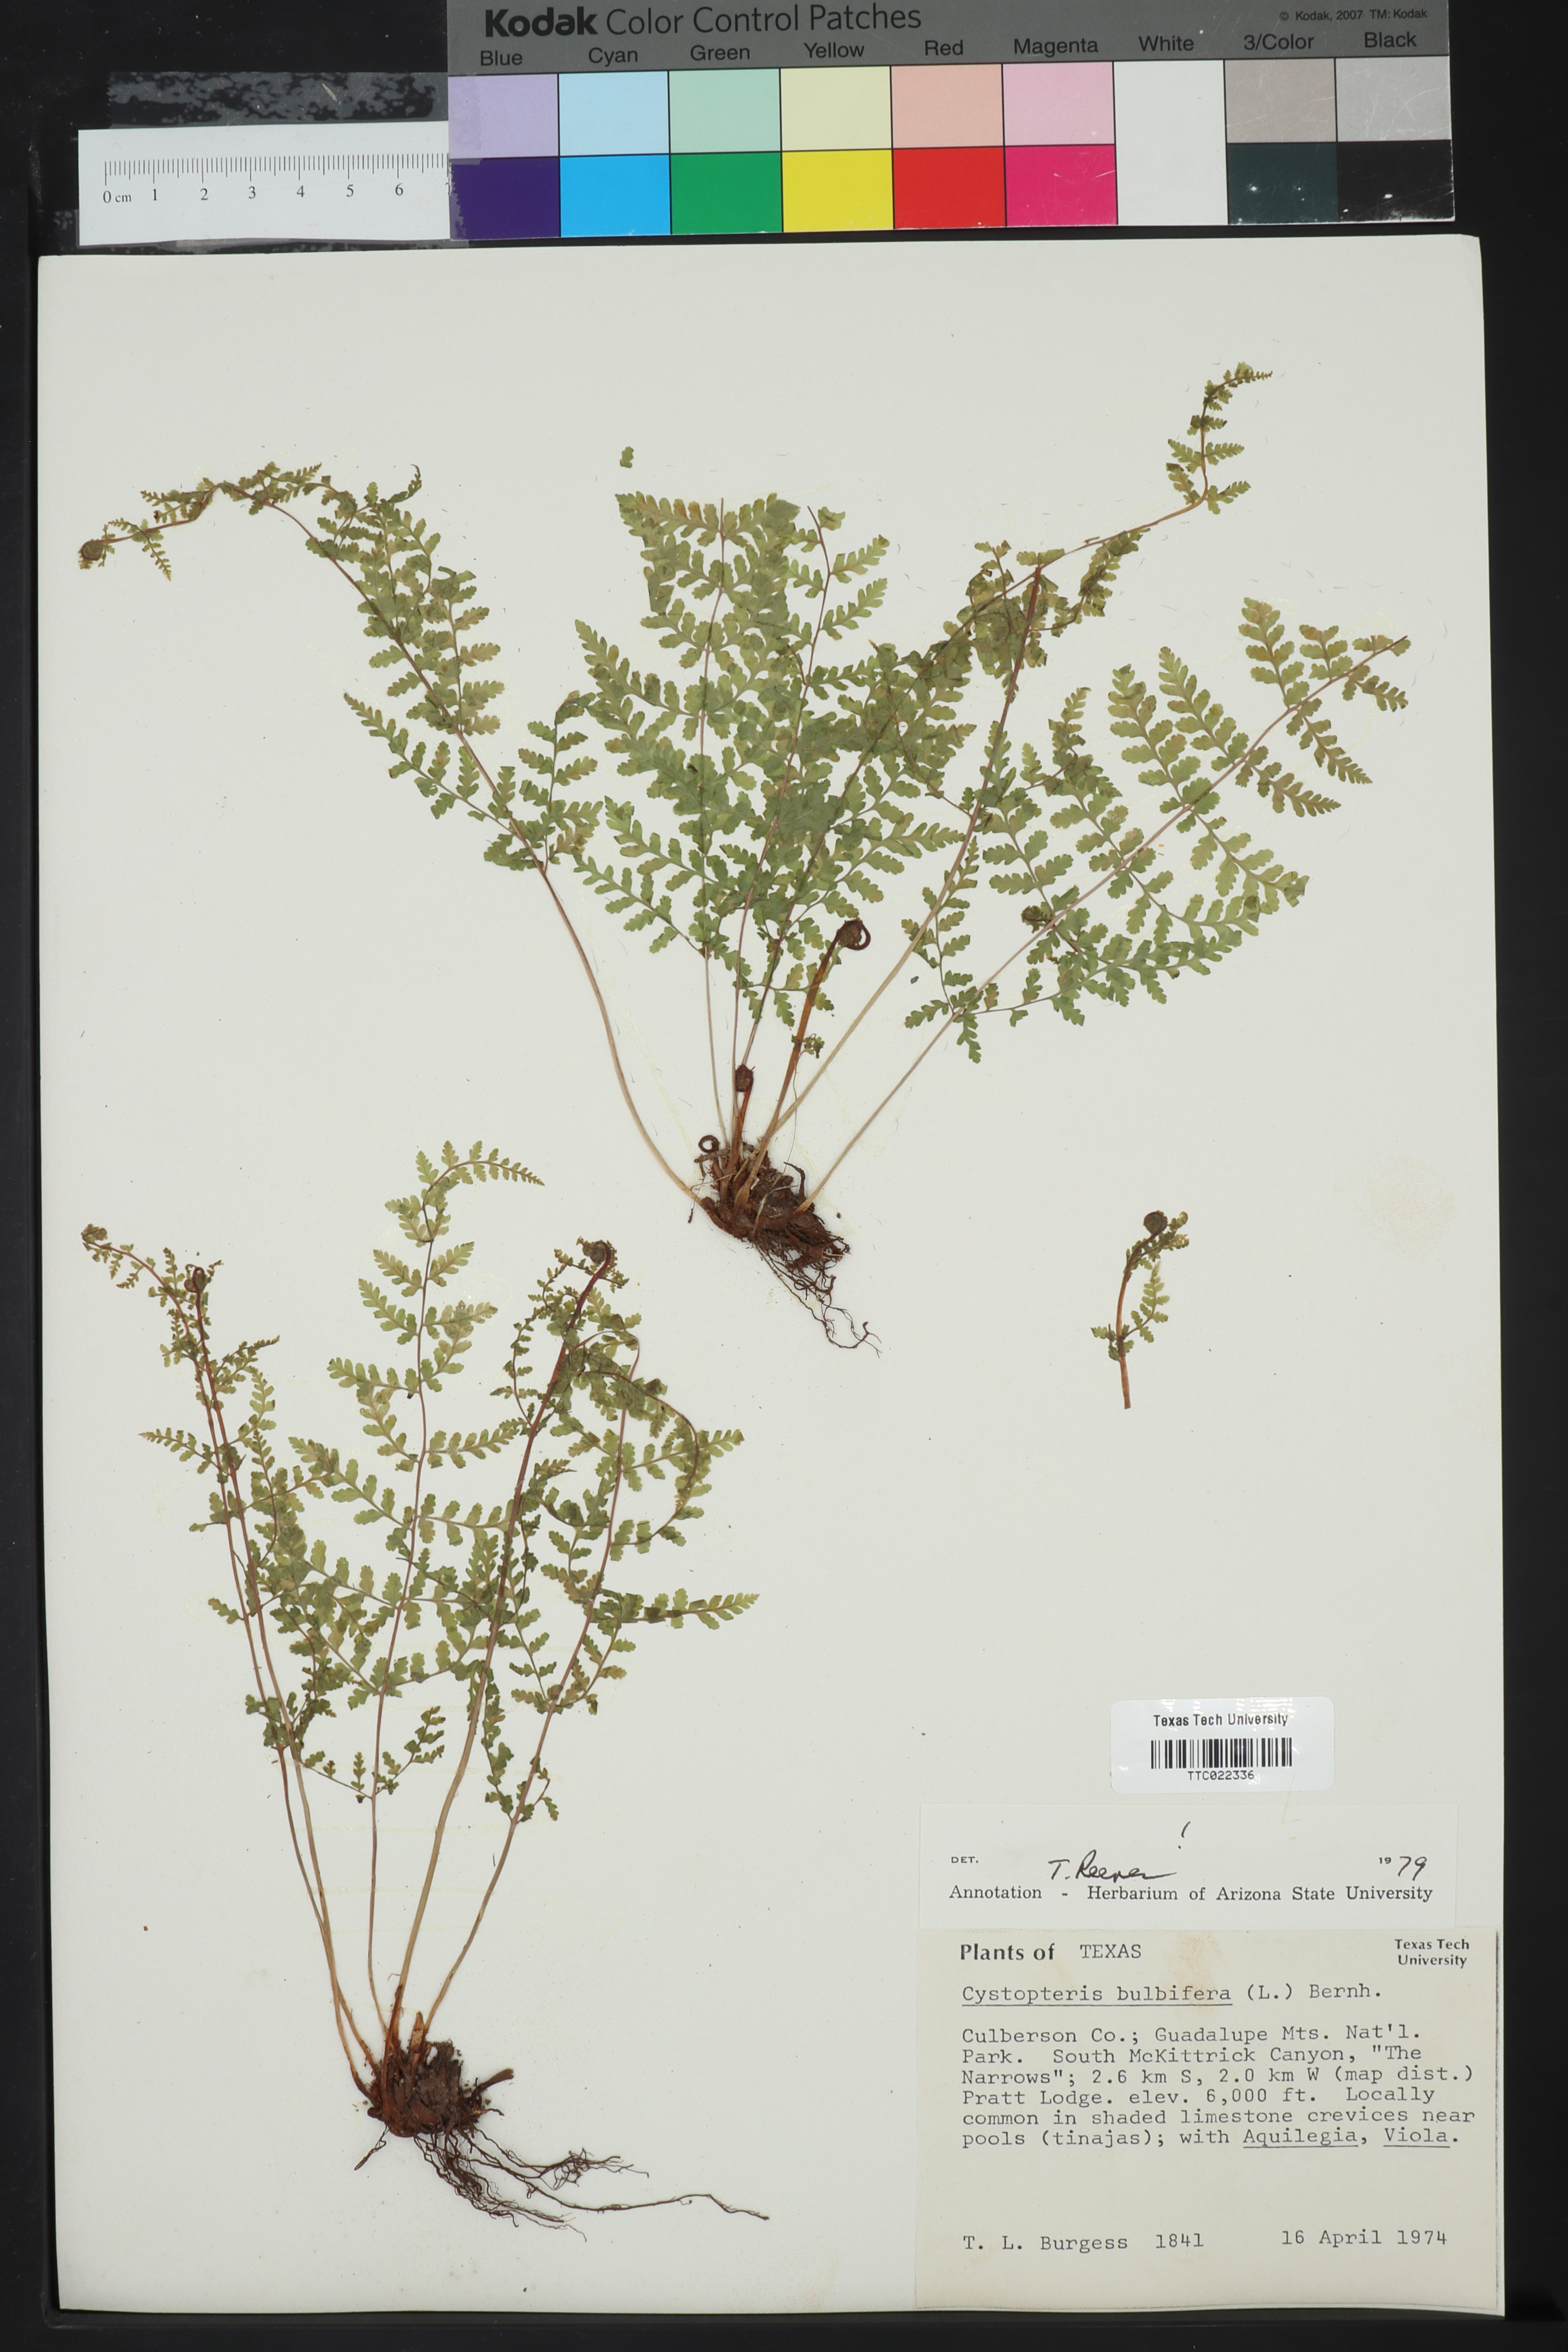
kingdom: Plantae
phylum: Tracheophyta
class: Polypodiopsida
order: Polypodiales
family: Cystopteridaceae
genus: Cystopteris
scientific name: Cystopteris bulbifera
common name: Bulblet bladder fern
